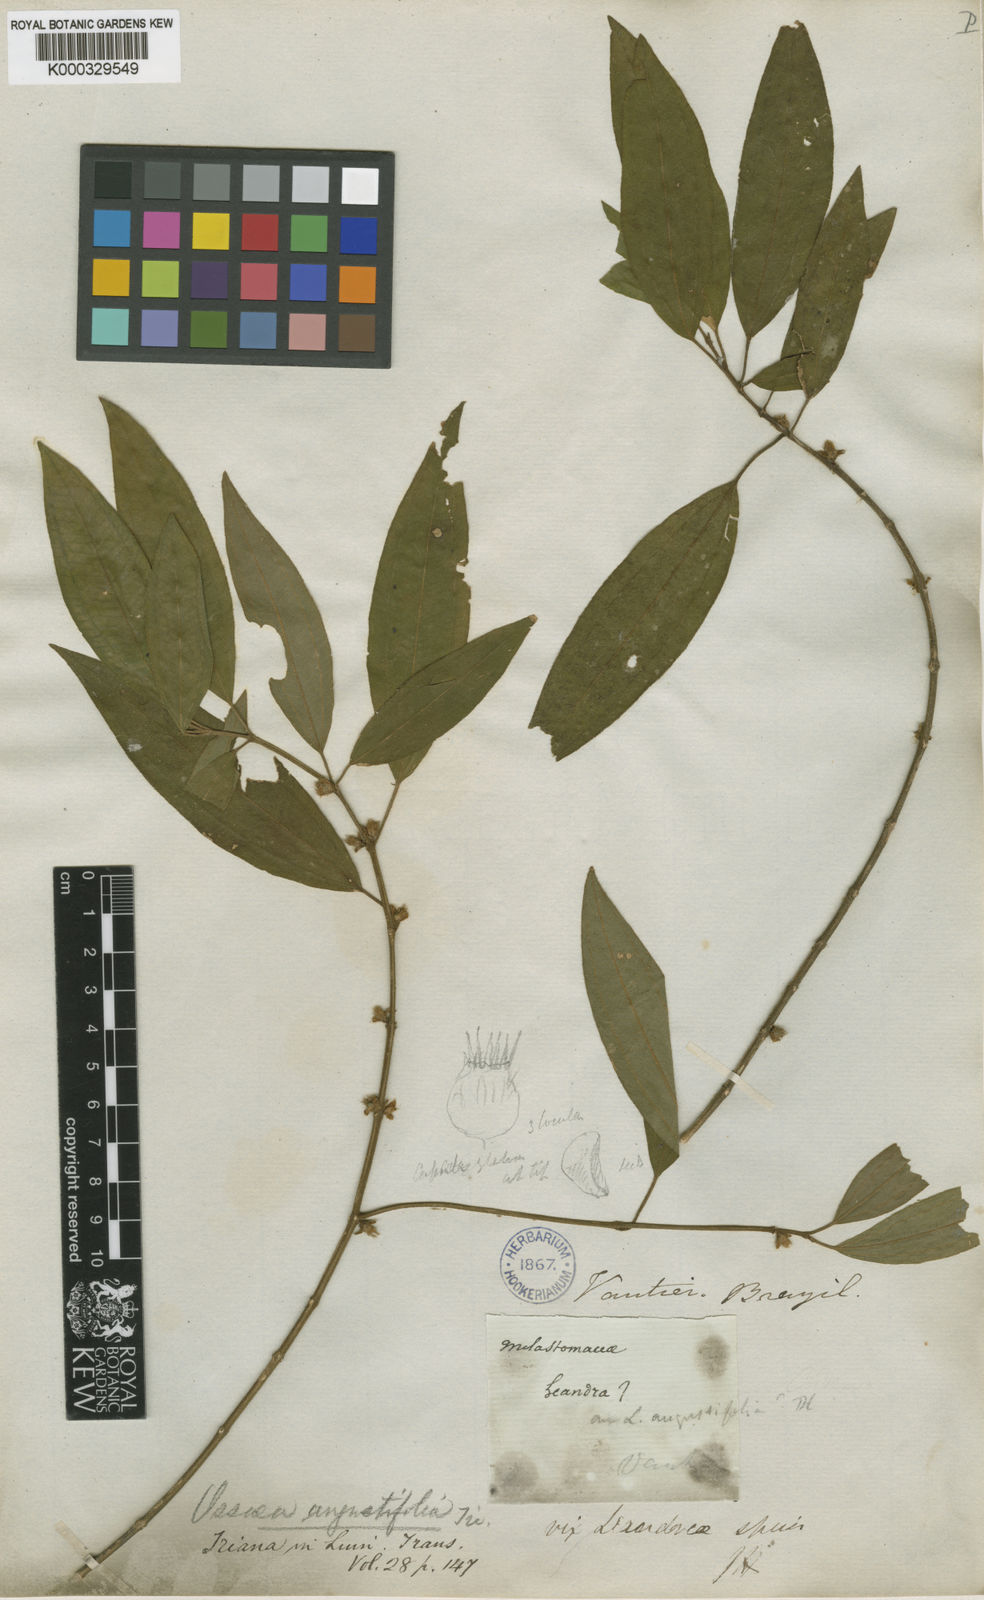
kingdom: Plantae
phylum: Tracheophyta
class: Magnoliopsida
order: Myrtales
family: Melastomataceae
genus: Miconia
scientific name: Miconia corcovadensis
